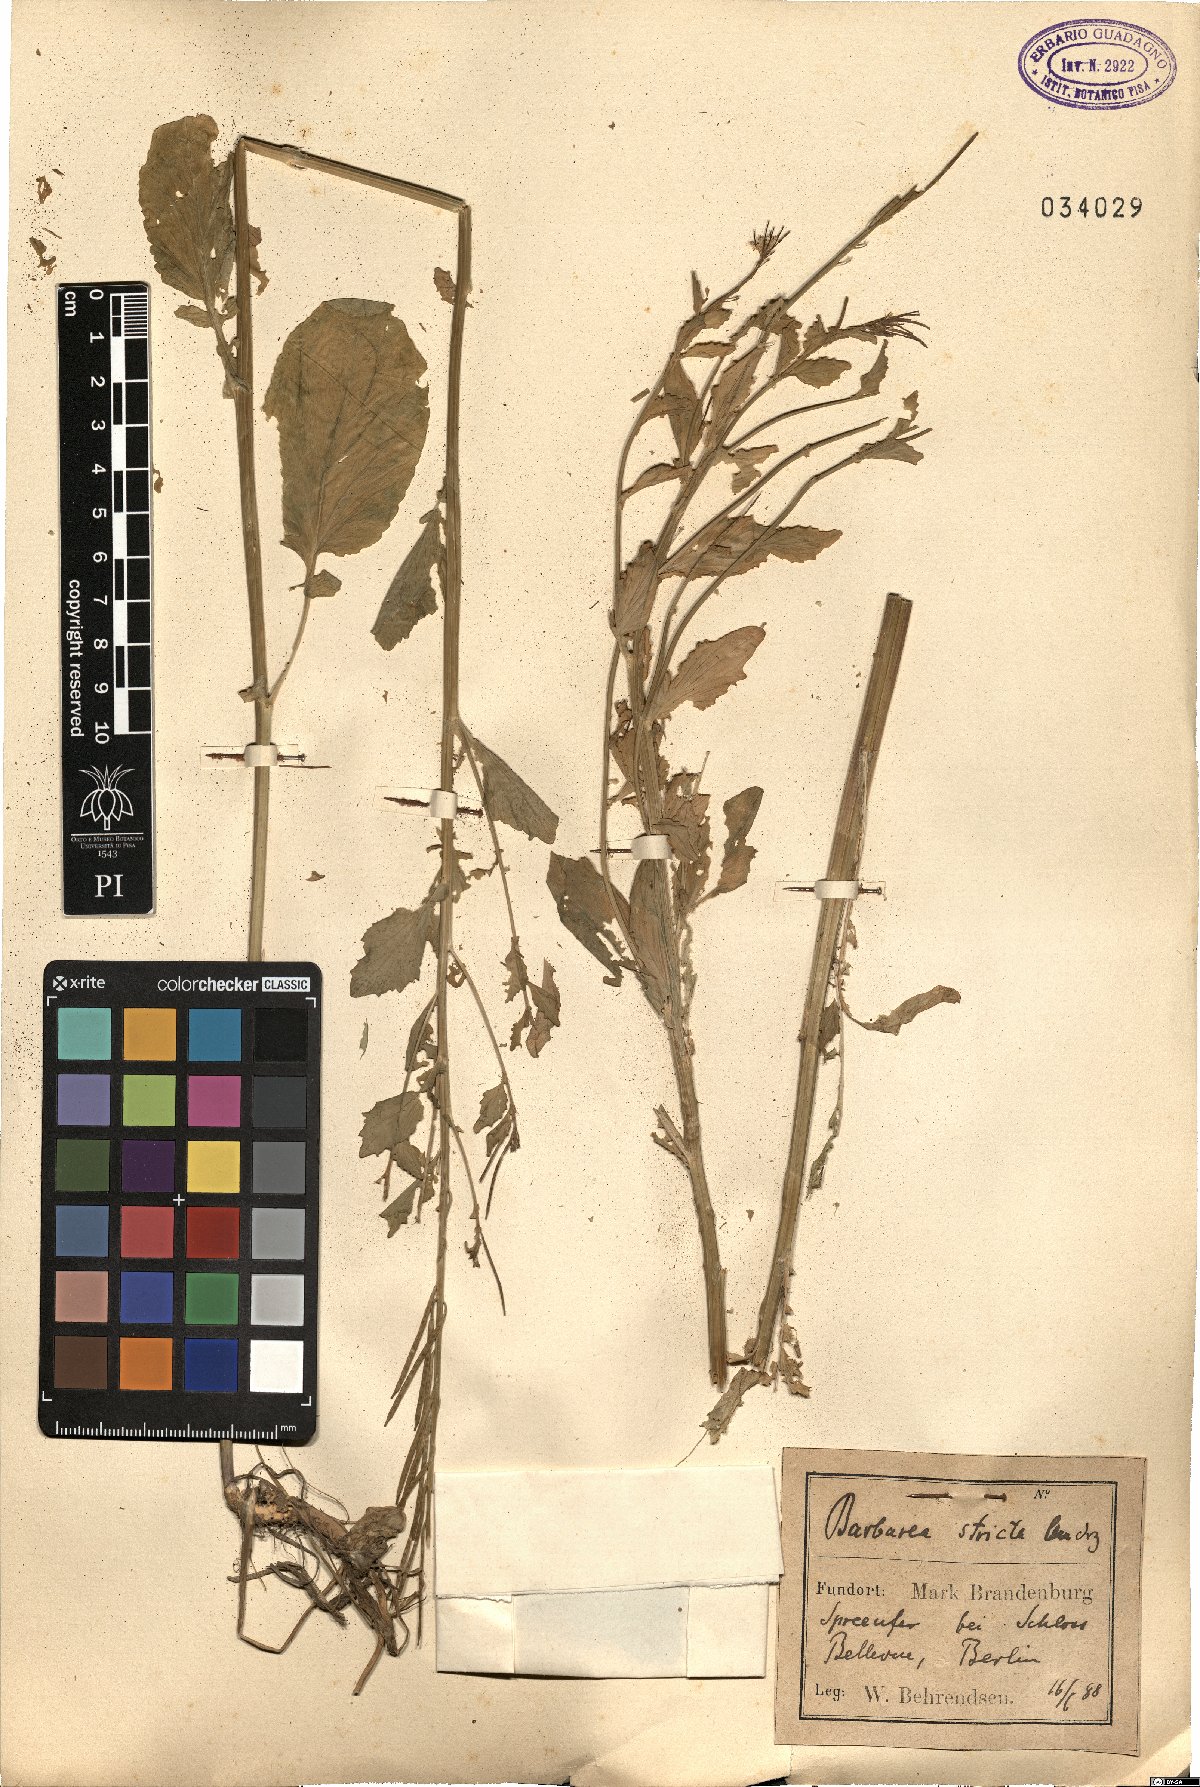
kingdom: Plantae
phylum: Tracheophyta
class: Magnoliopsida
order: Brassicales
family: Brassicaceae
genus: Barbarea
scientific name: Barbarea stricta
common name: Small-flowered winter-cress
